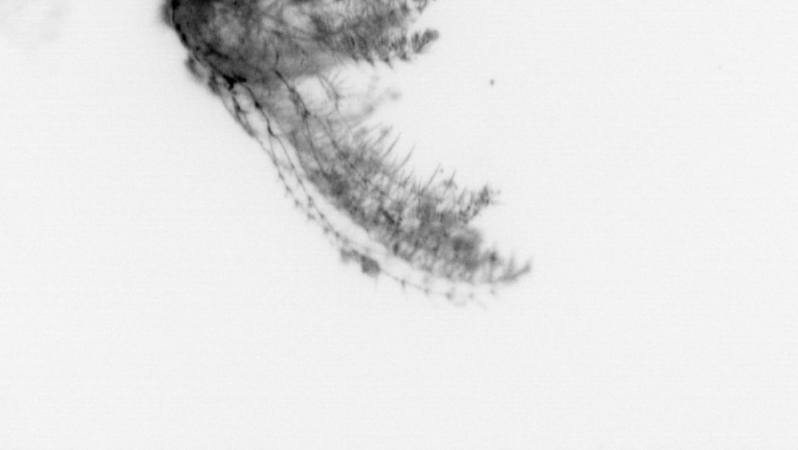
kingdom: Animalia
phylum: Arthropoda
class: Maxillopoda
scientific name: Maxillopoda
